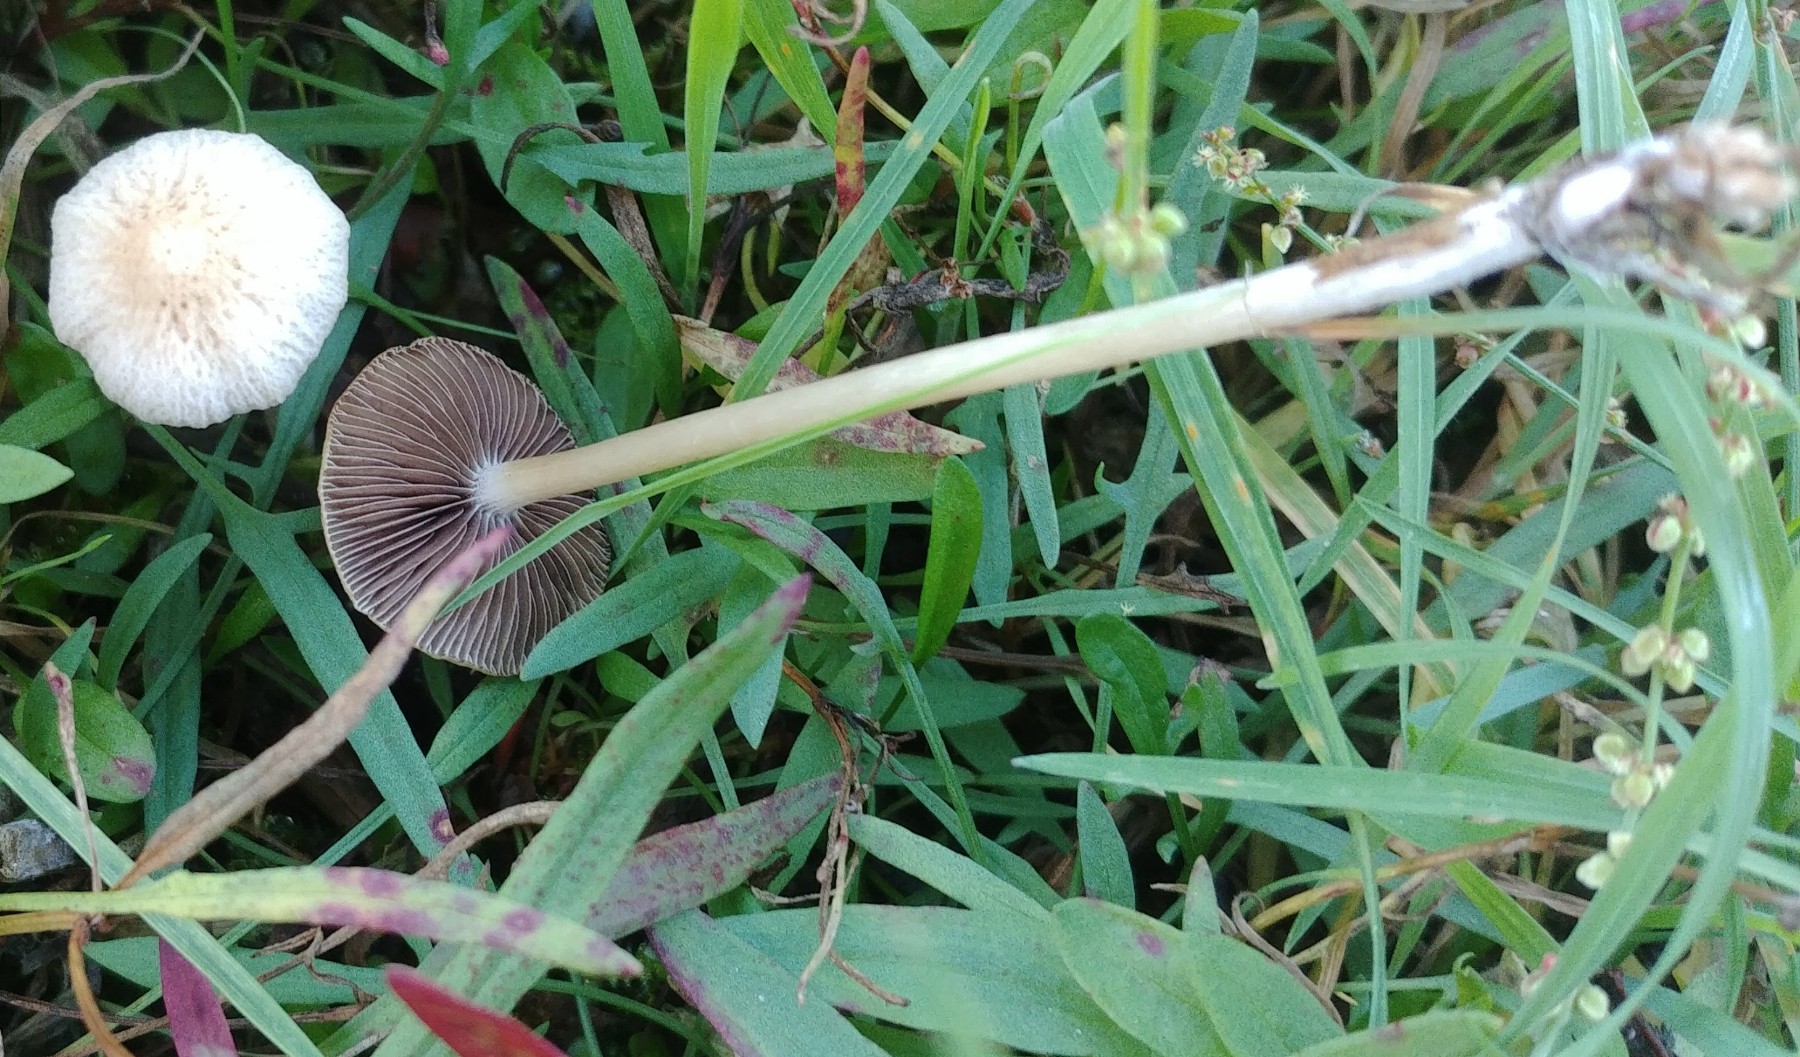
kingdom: Fungi
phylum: Basidiomycota
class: Agaricomycetes
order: Agaricales
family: Psathyrellaceae
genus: Psathyrella
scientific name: Psathyrella
